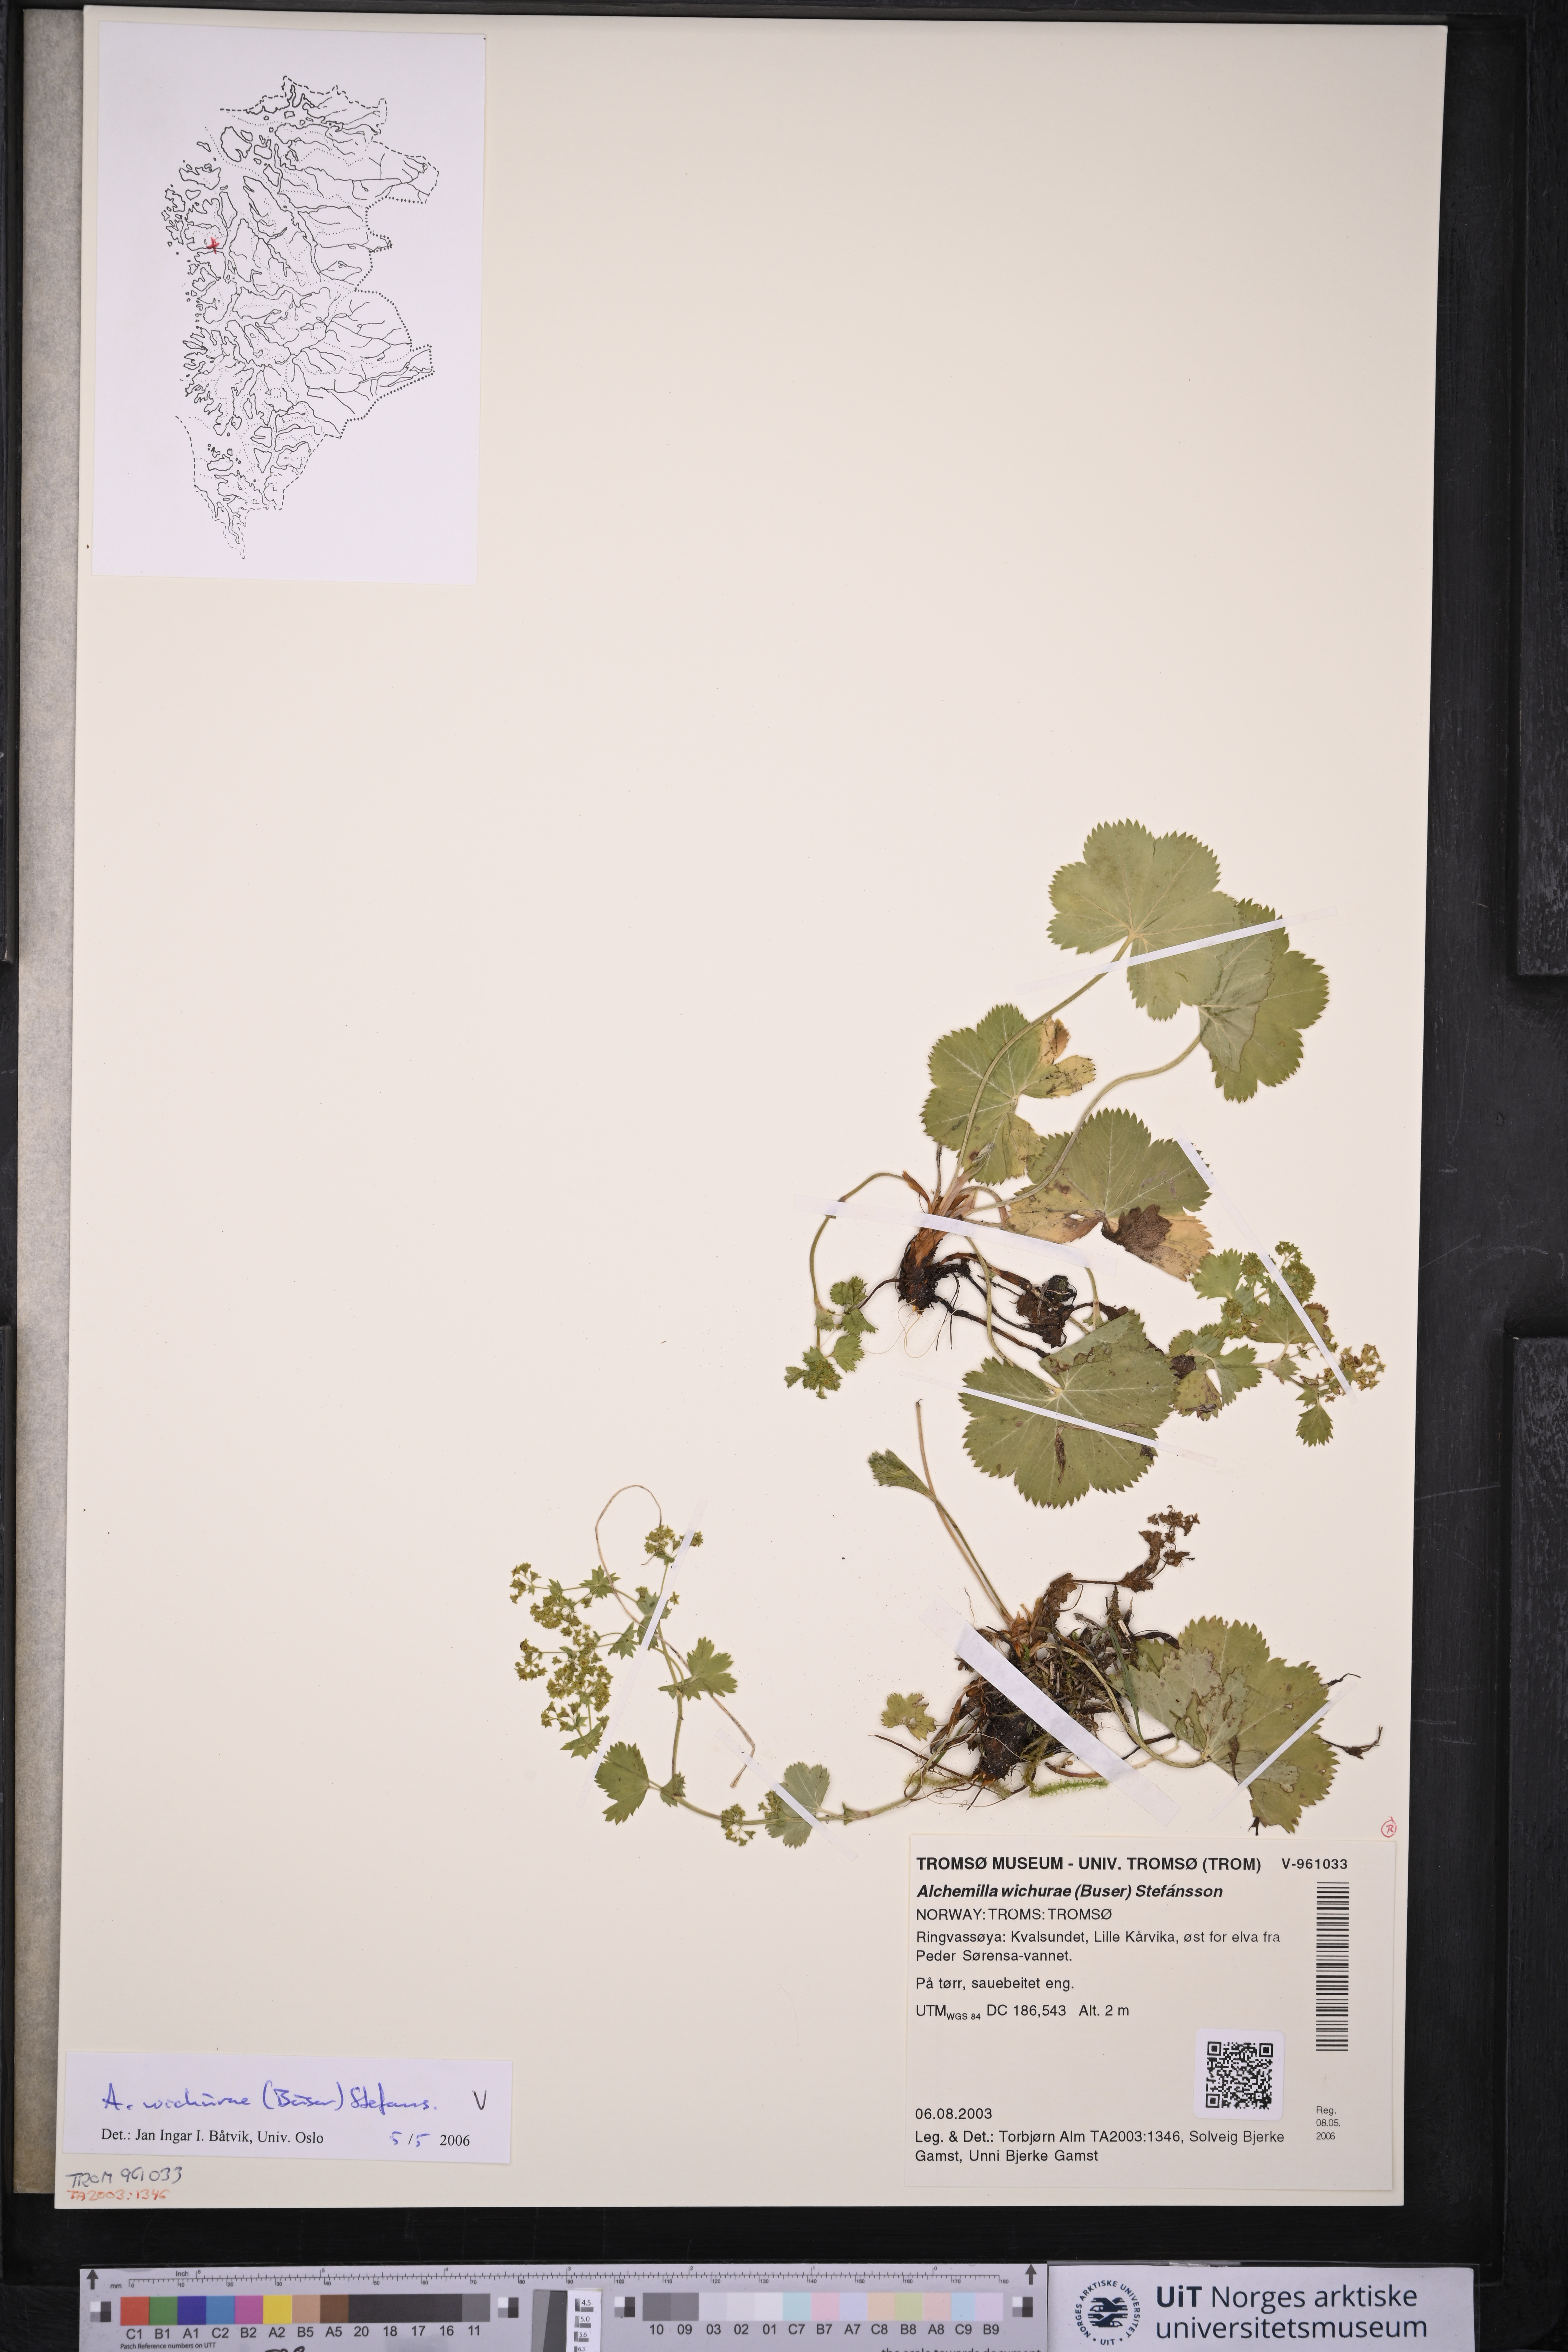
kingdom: Plantae
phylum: Tracheophyta
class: Magnoliopsida
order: Rosales
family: Rosaceae
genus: Alchemilla
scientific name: Alchemilla wichurae
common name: Rock lady's mantle
